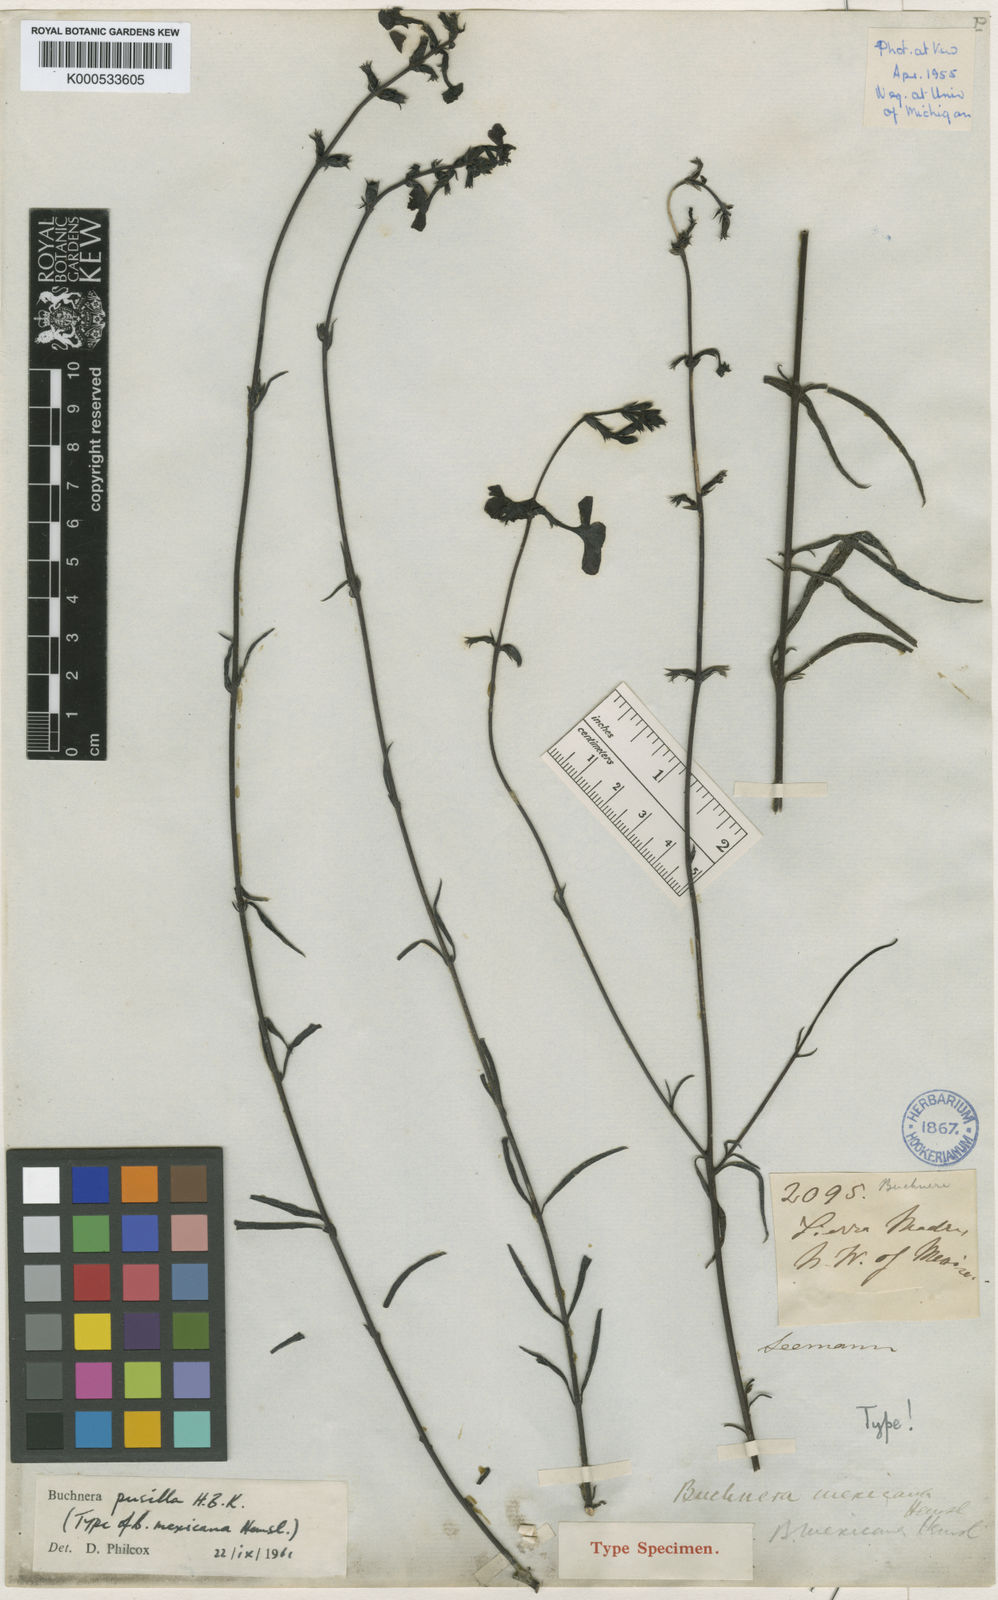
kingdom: Plantae
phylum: Tracheophyta
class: Magnoliopsida
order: Lamiales
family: Orobanchaceae
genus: Buchnera
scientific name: Buchnera pusilla
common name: Pygmy bluehearts
